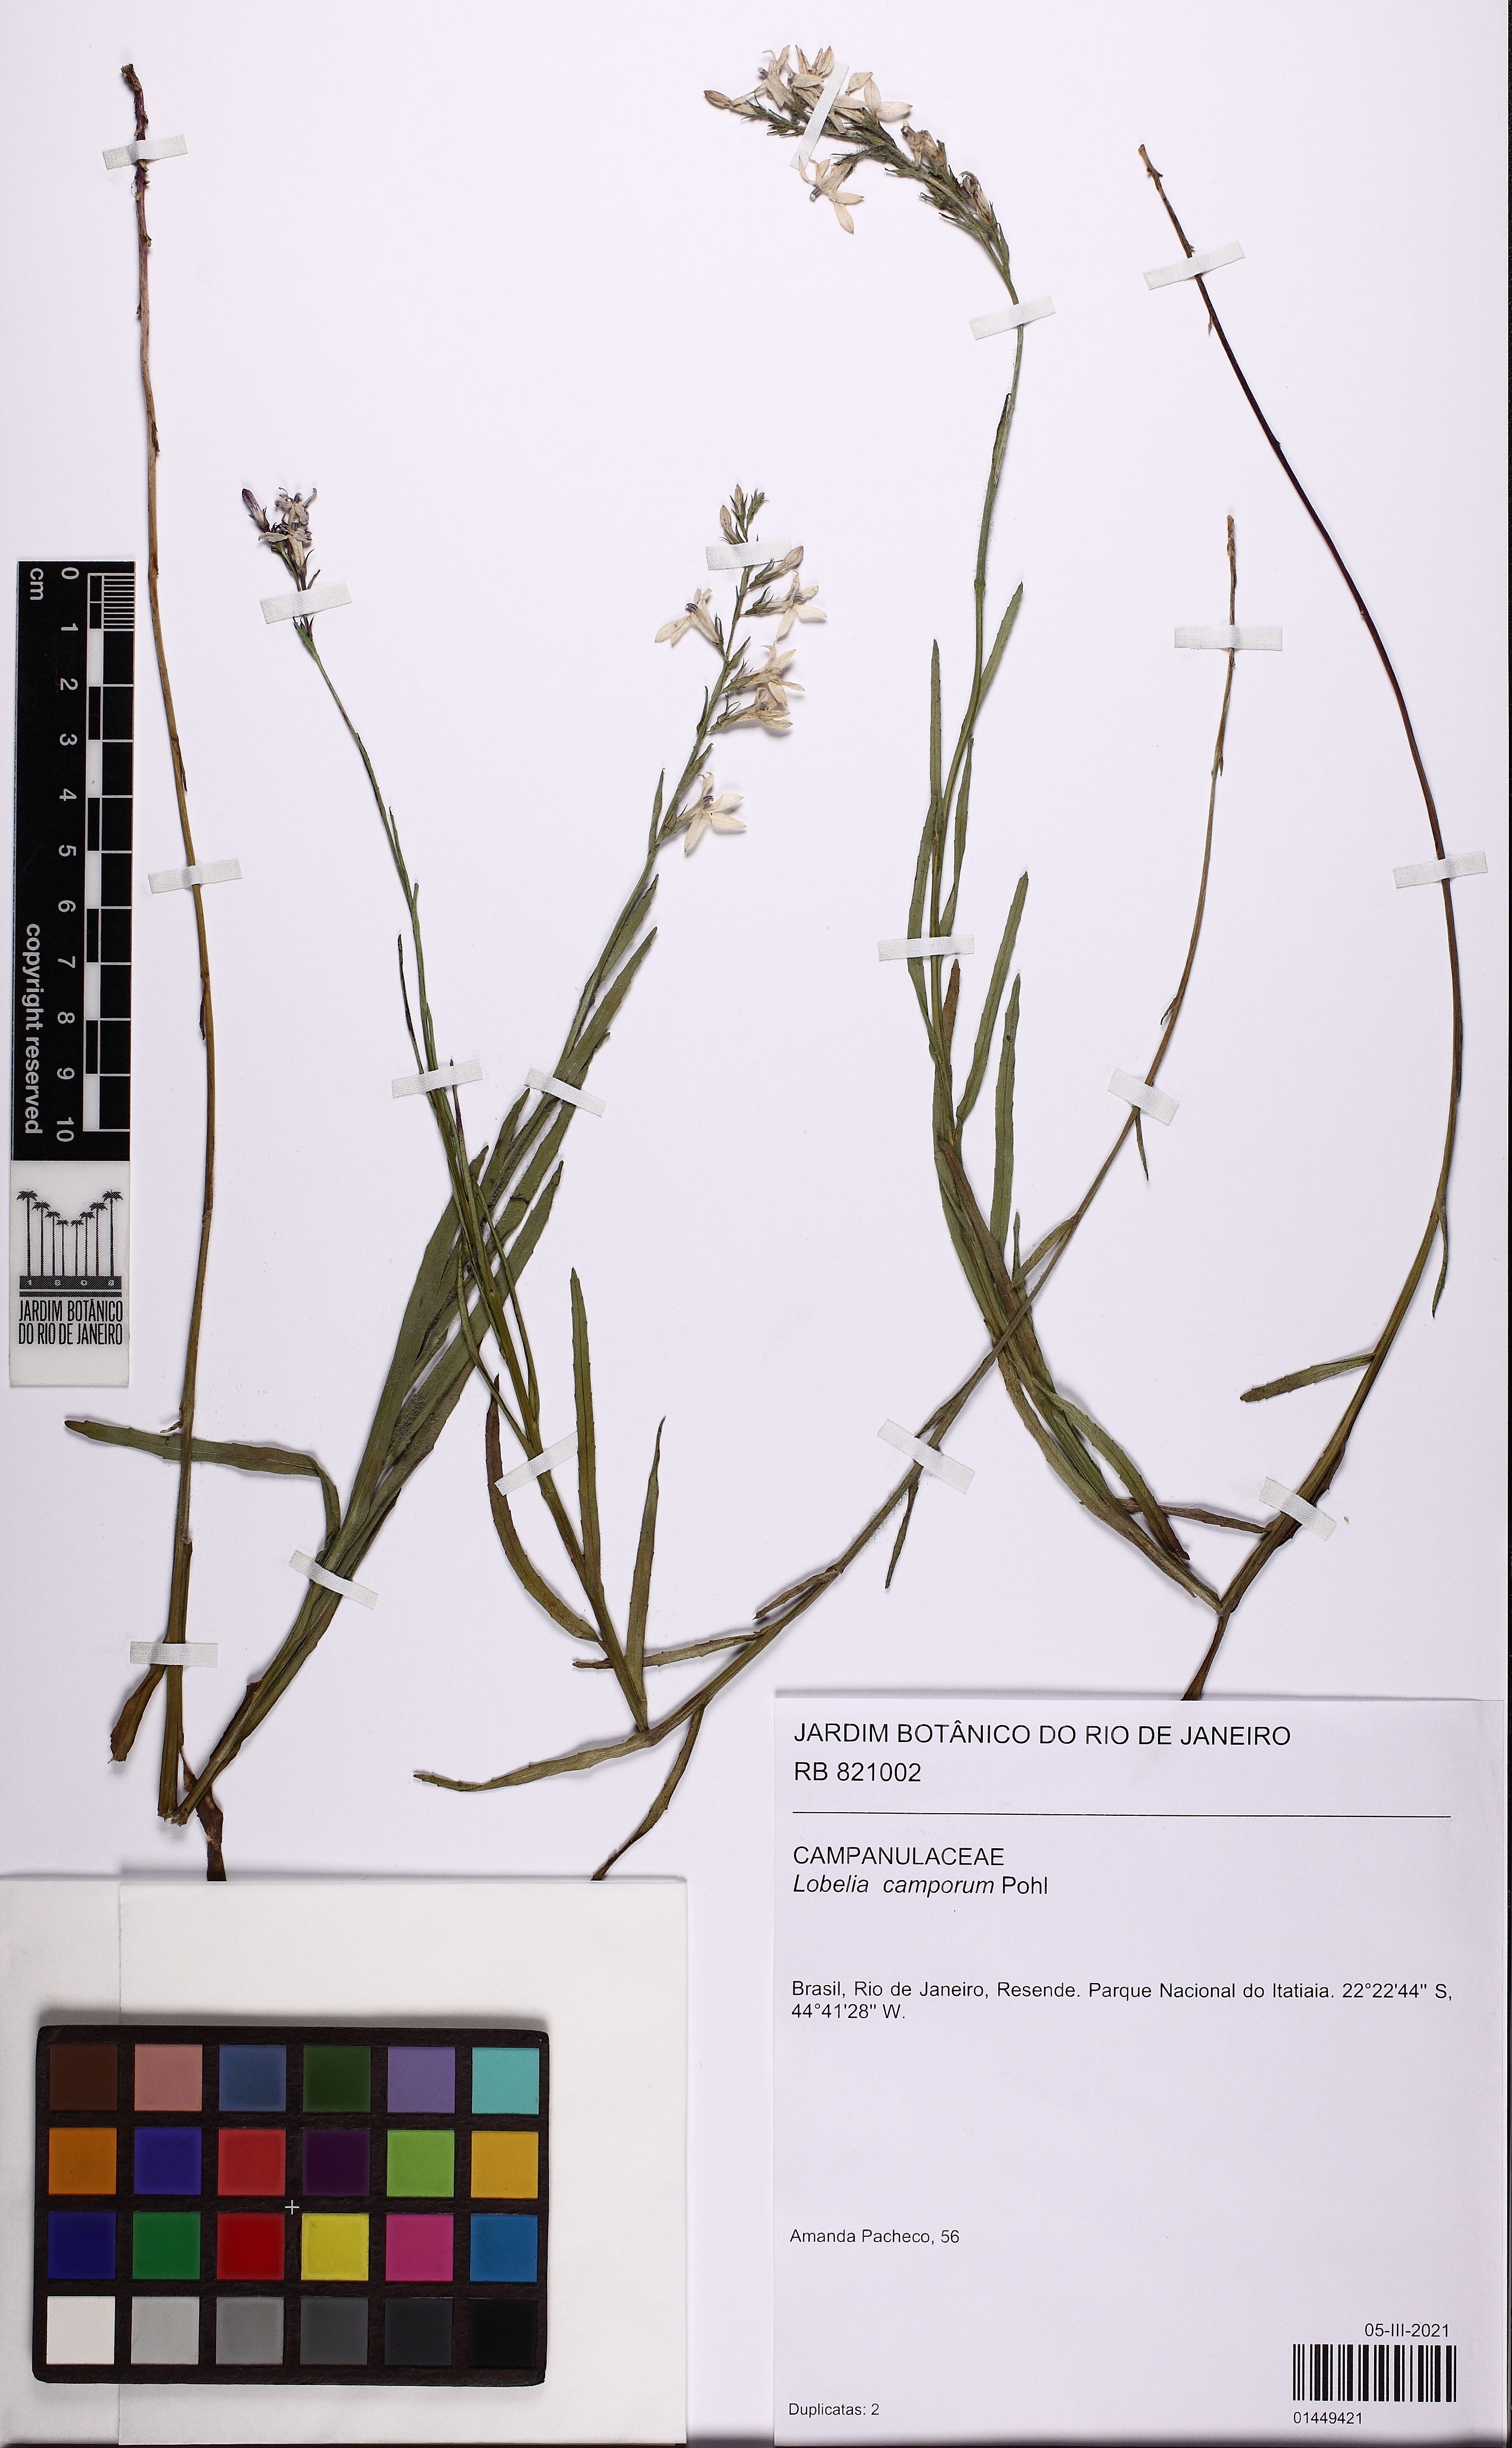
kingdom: Plantae
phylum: Tracheophyta
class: Magnoliopsida
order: Asterales
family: Campanulaceae
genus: Lobelia
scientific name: Lobelia camporum
